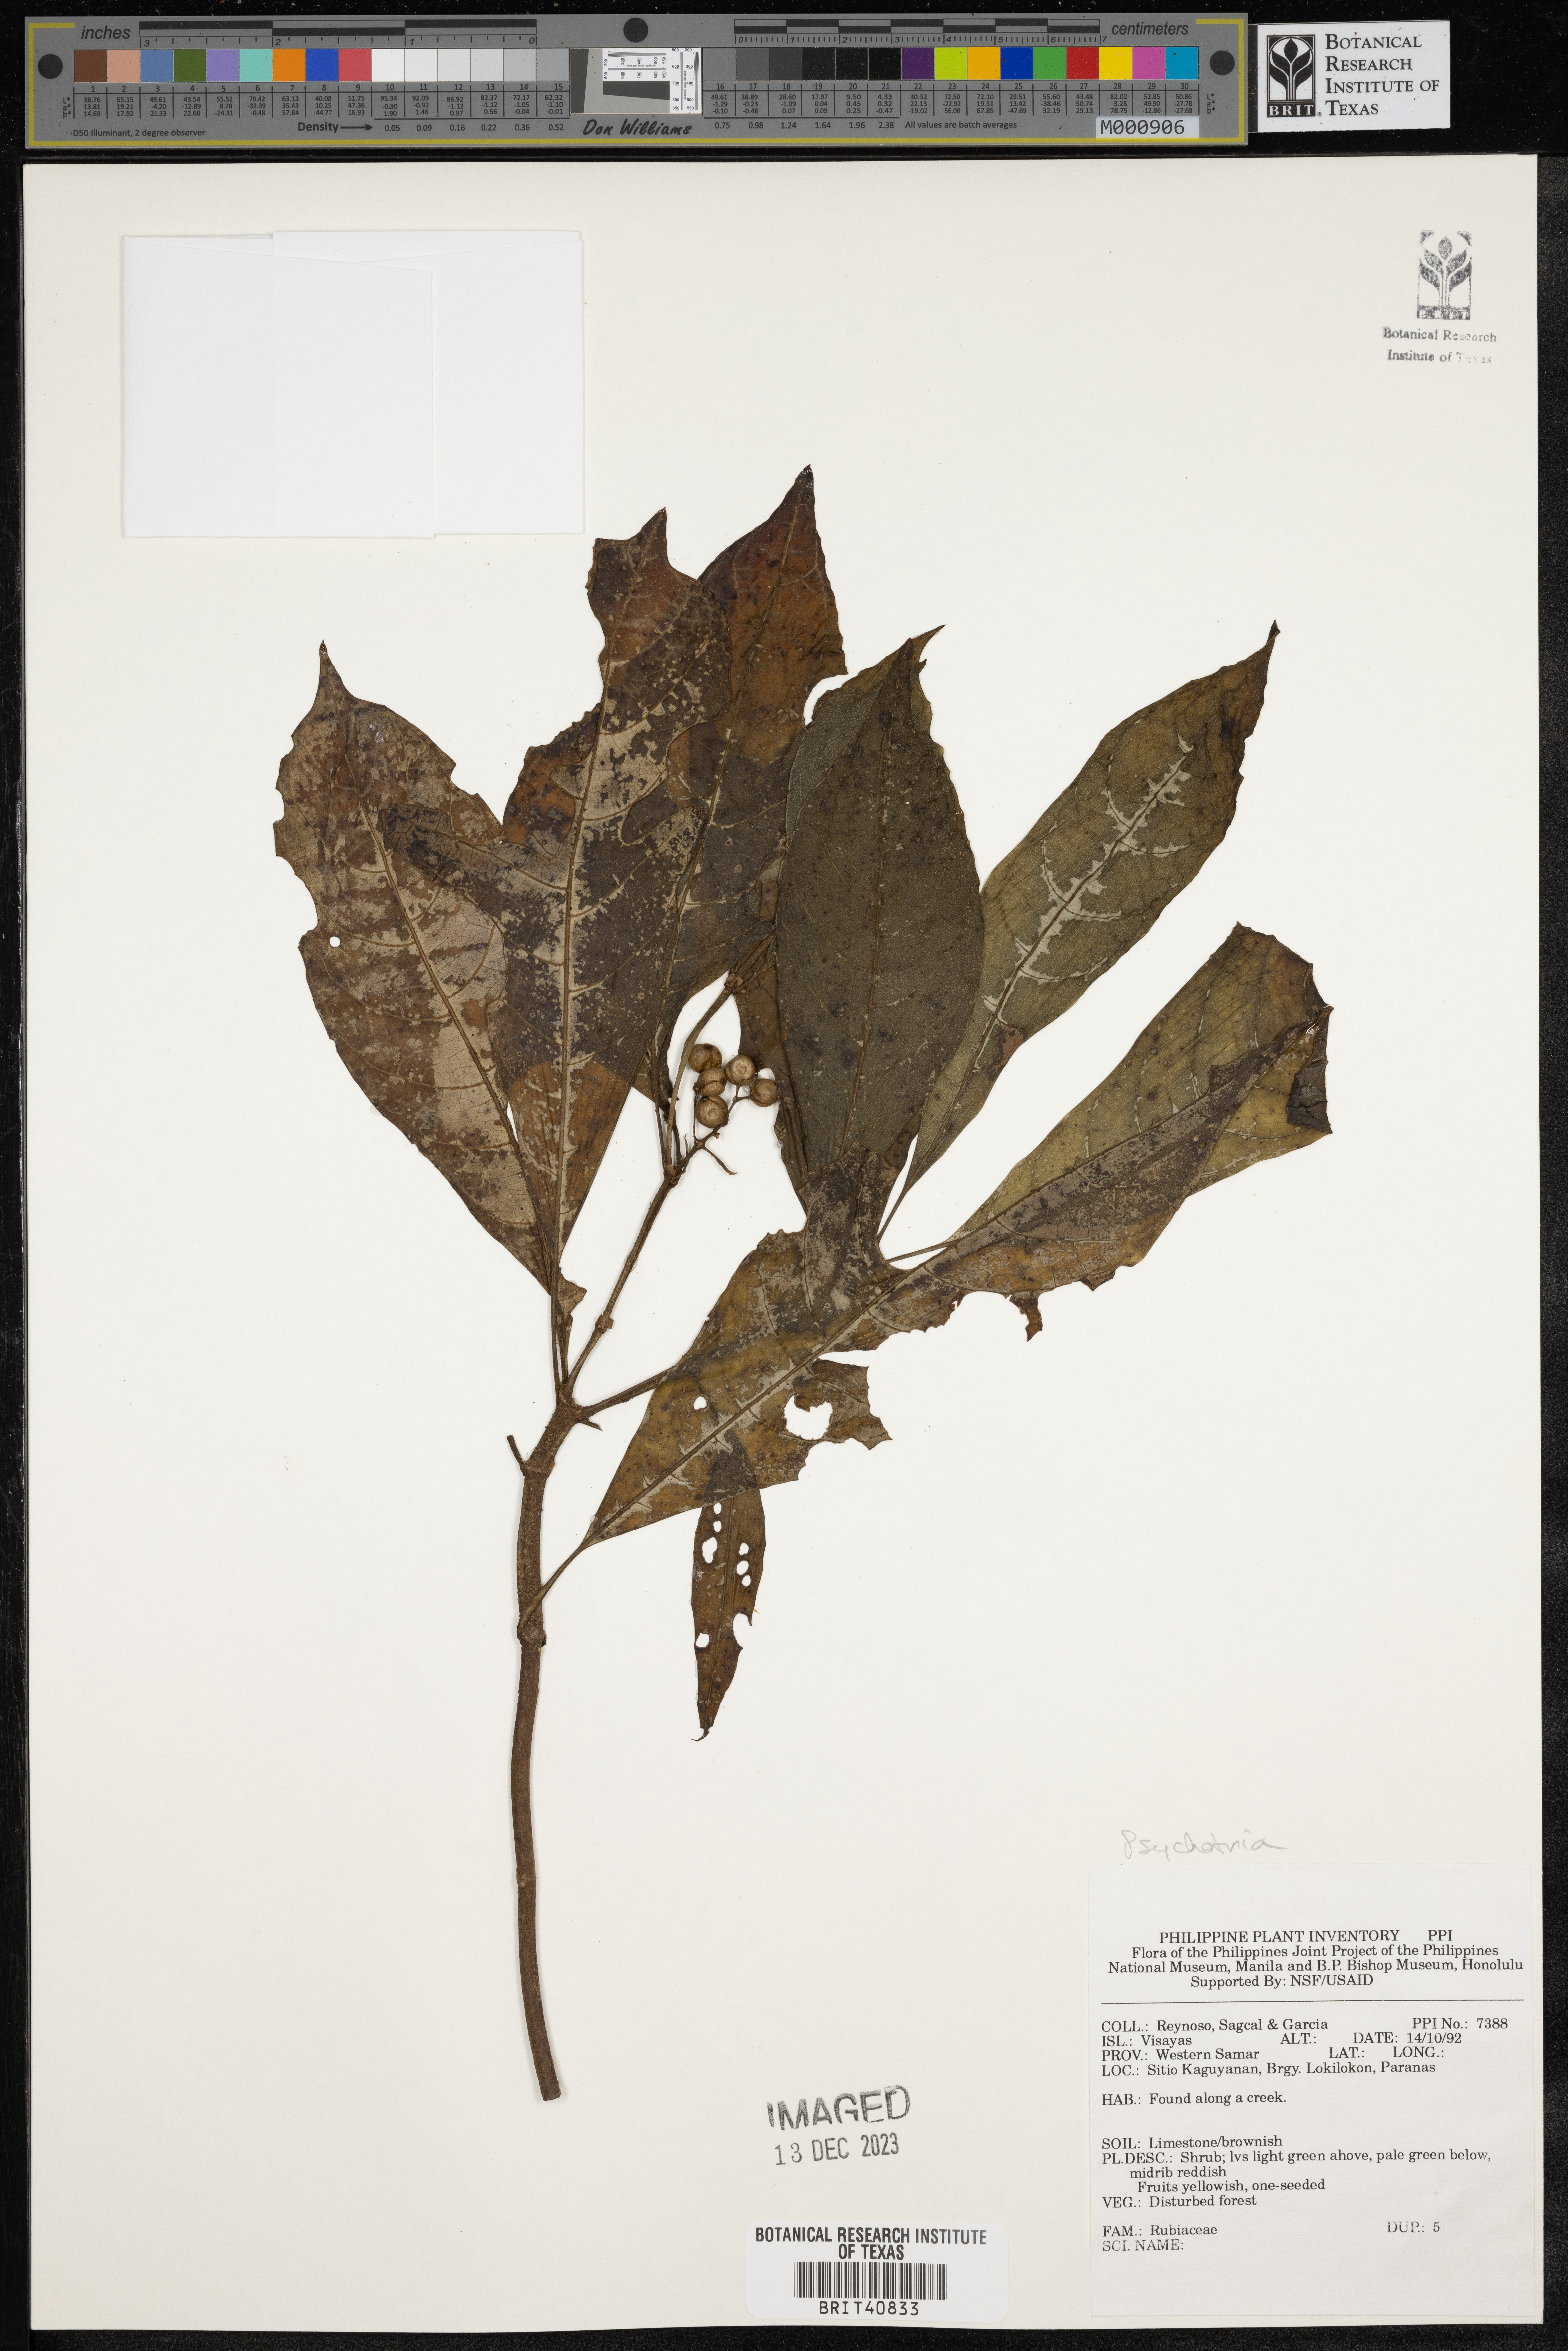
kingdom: Plantae
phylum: Tracheophyta
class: Magnoliopsida
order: Gentianales
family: Rubiaceae
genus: Psychotria
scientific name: Psychotria
